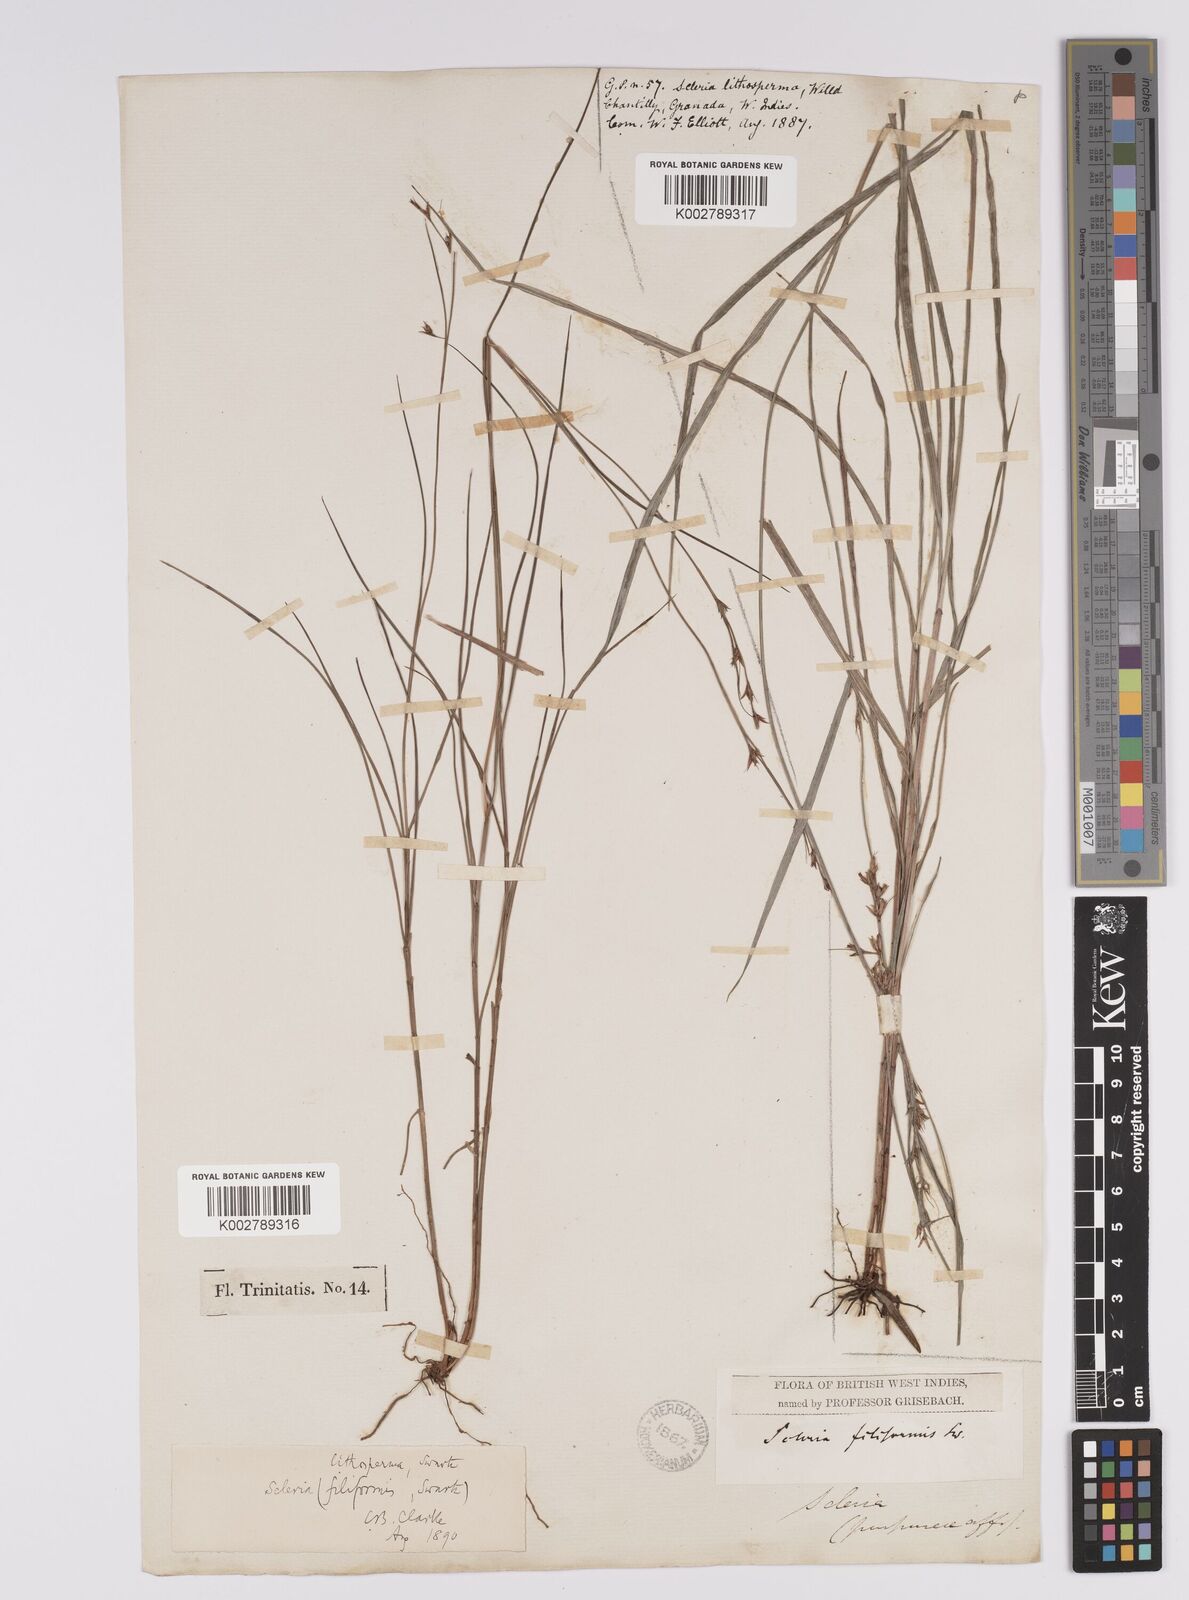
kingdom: Plantae
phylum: Tracheophyta
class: Liliopsida
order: Poales
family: Cyperaceae
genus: Scleria
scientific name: Scleria lithosperma
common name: Florida keys nut-rush
